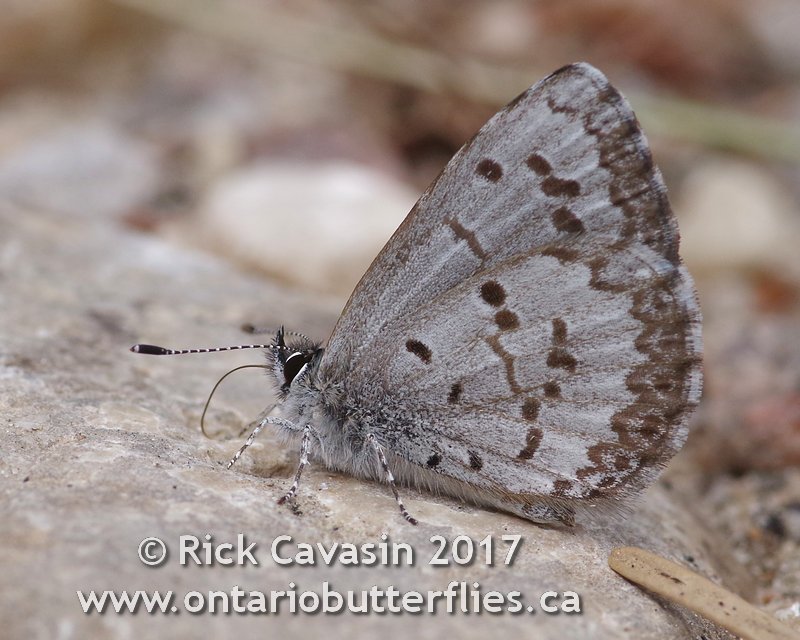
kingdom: Animalia
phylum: Arthropoda
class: Insecta
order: Lepidoptera
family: Lycaenidae
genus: Celastrina
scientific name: Celastrina lucia
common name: Northern Spring Azure
